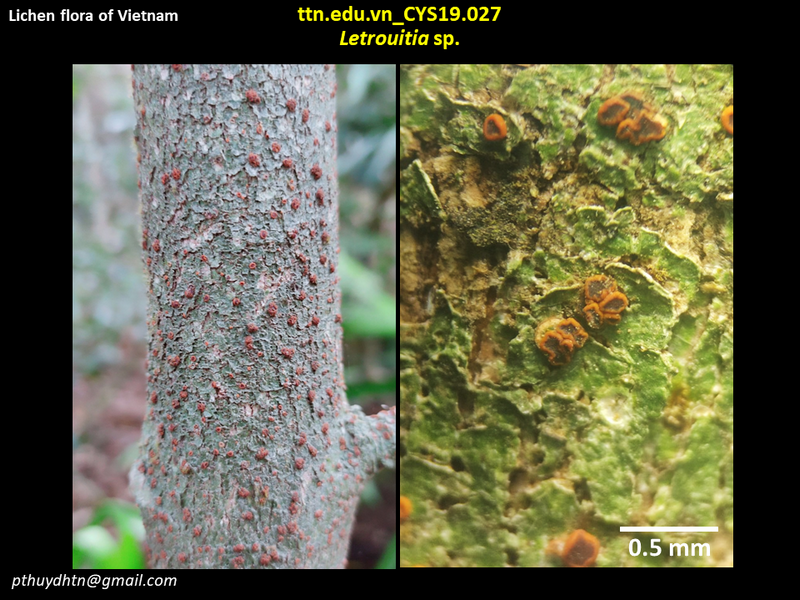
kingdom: Fungi
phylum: Ascomycota
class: Lecanoromycetes
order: Teloschistales
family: Letrouitiaceae
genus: Letrouitia
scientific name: Letrouitia
